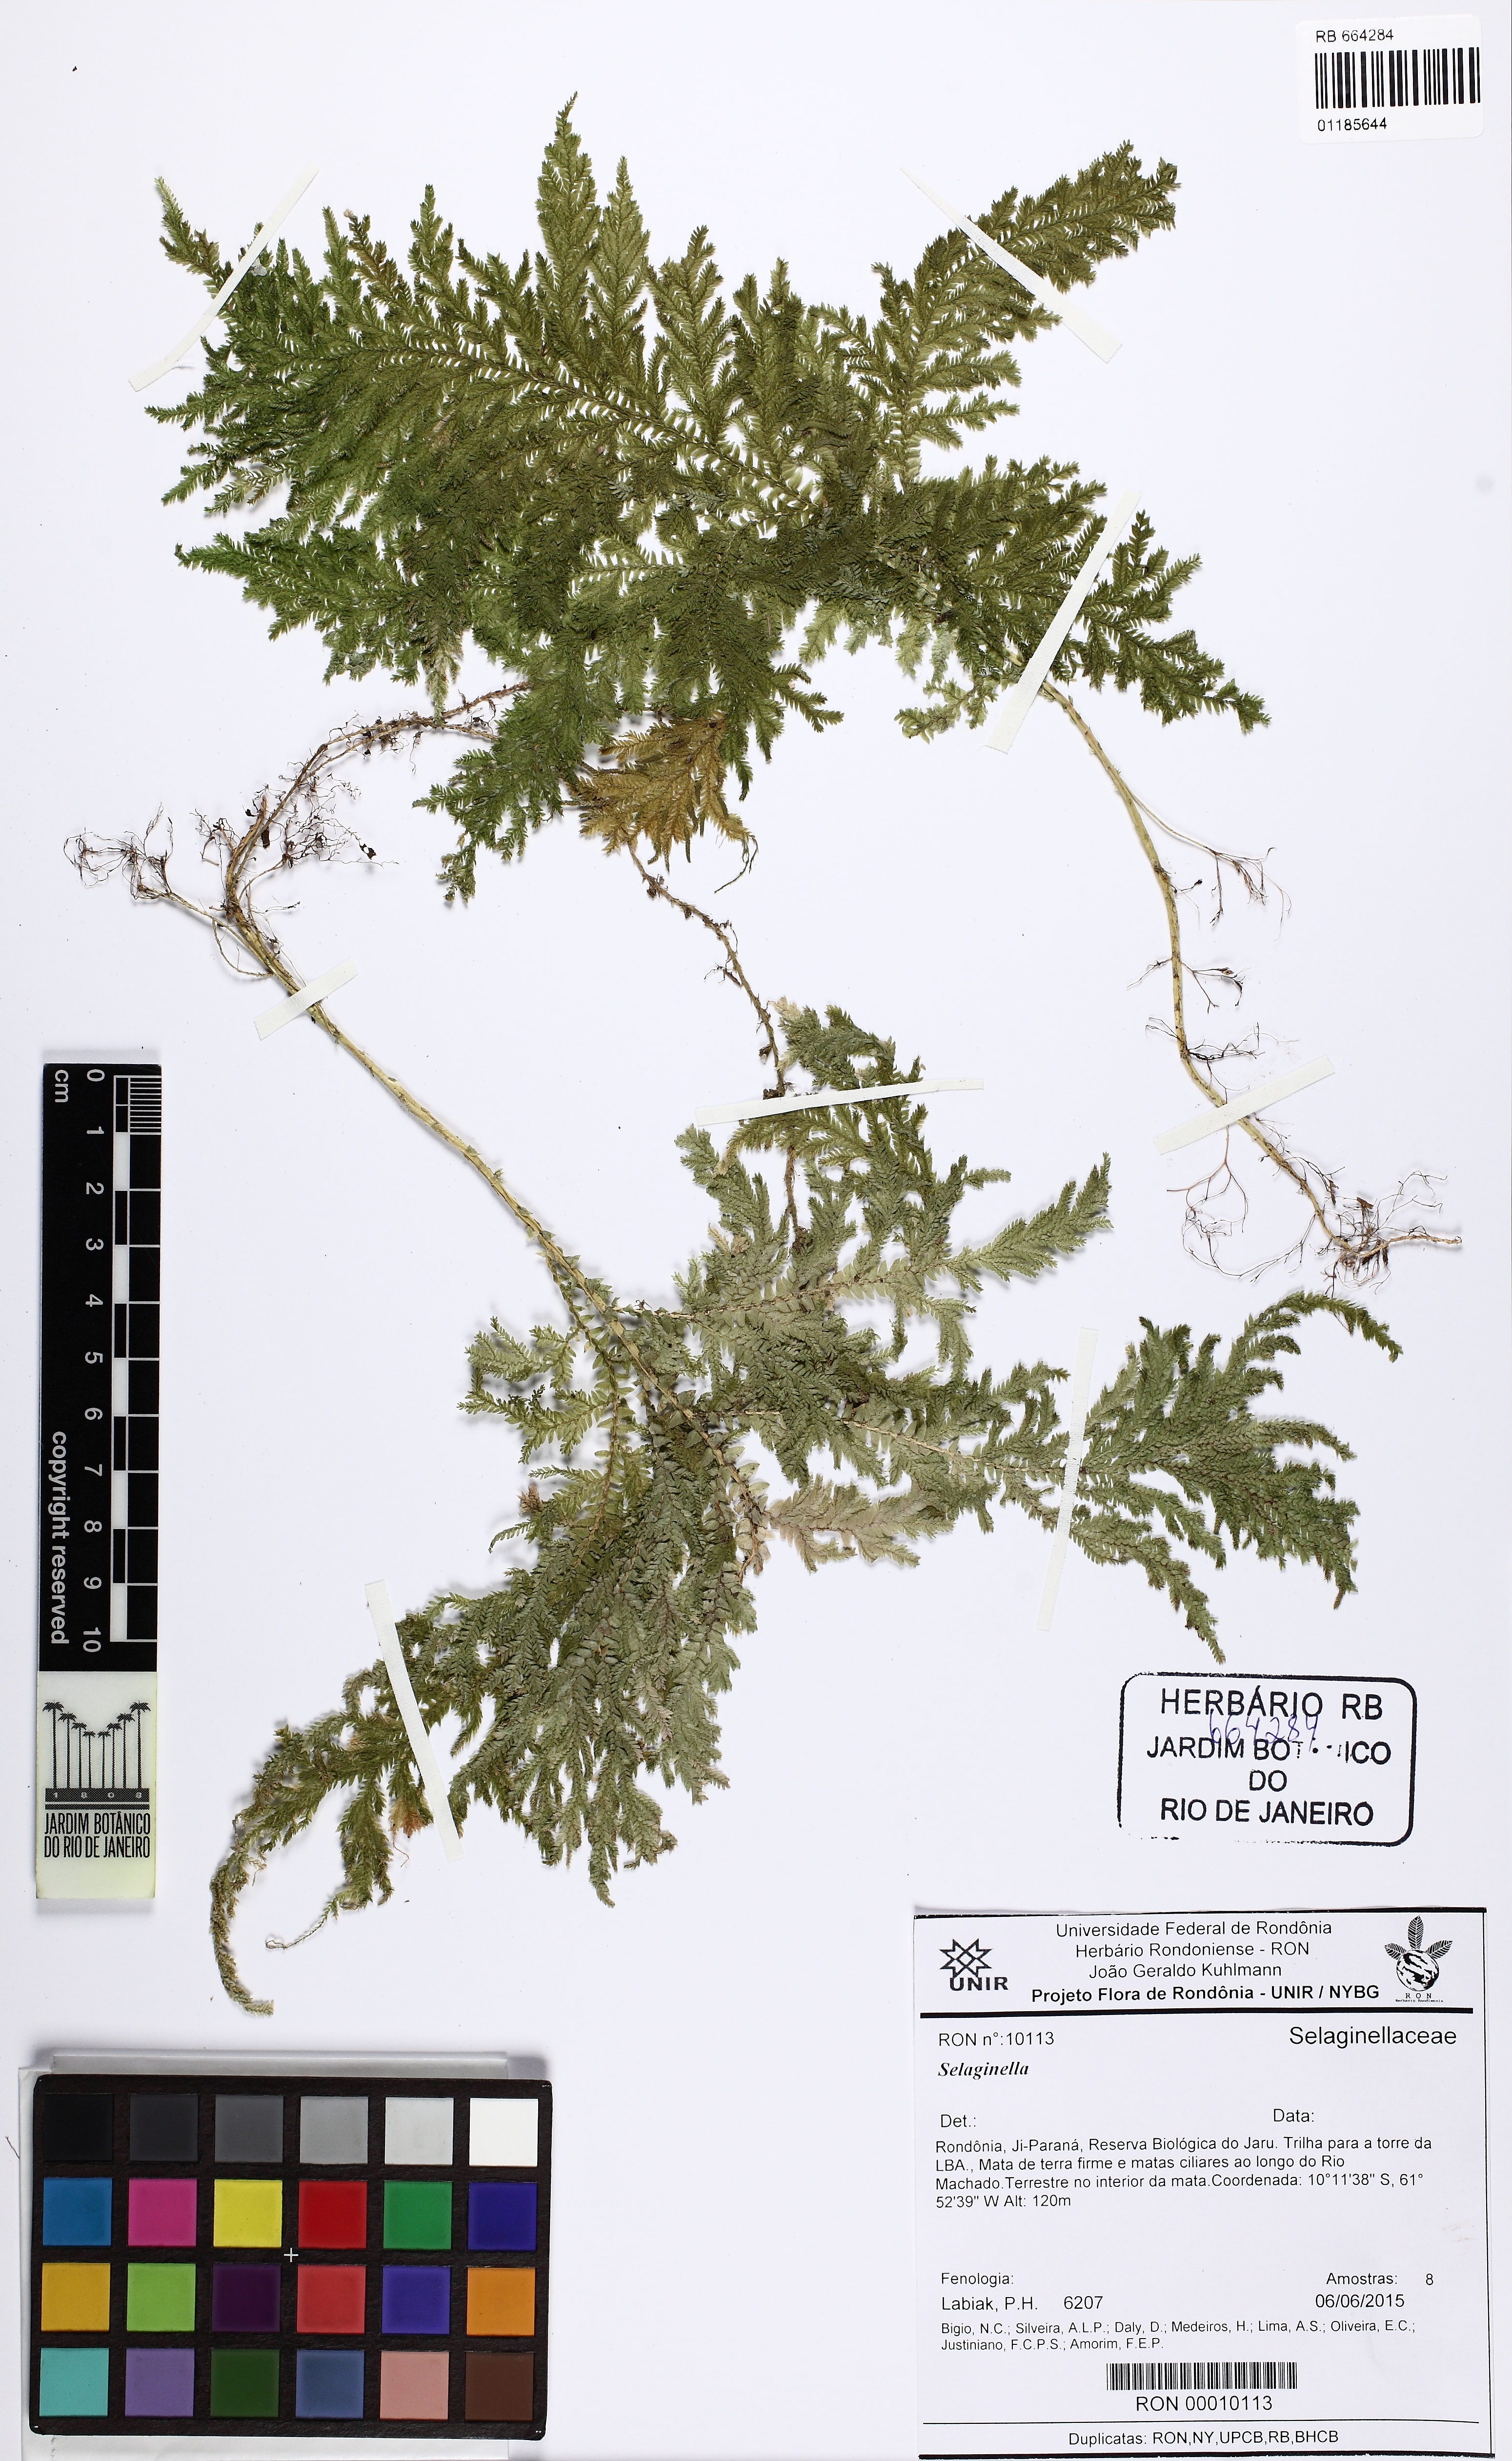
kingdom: Plantae
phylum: Tracheophyta
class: Lycopodiopsida
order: Selaginellales
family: Selaginellaceae
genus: Selaginella
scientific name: Selaginella
